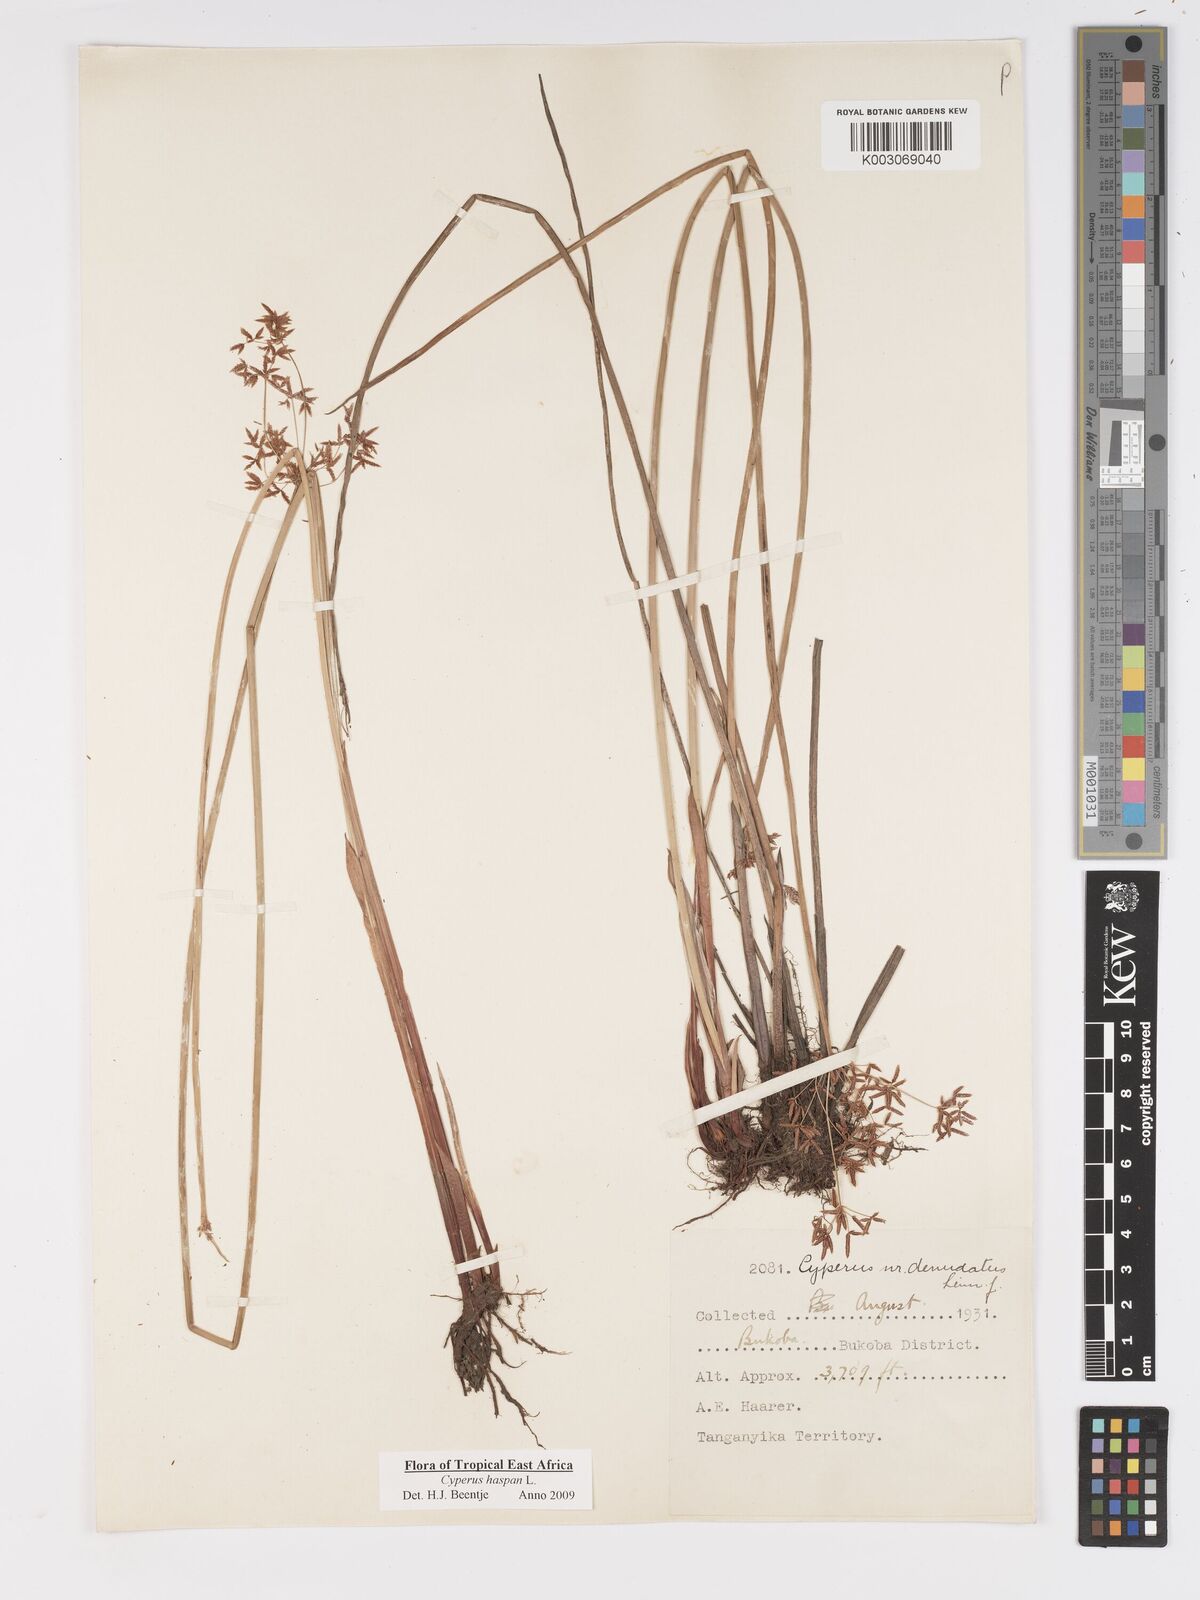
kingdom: Plantae
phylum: Tracheophyta
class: Liliopsida
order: Poales
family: Cyperaceae
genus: Cyperus
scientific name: Cyperus haspan
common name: Haspan flatsedge
